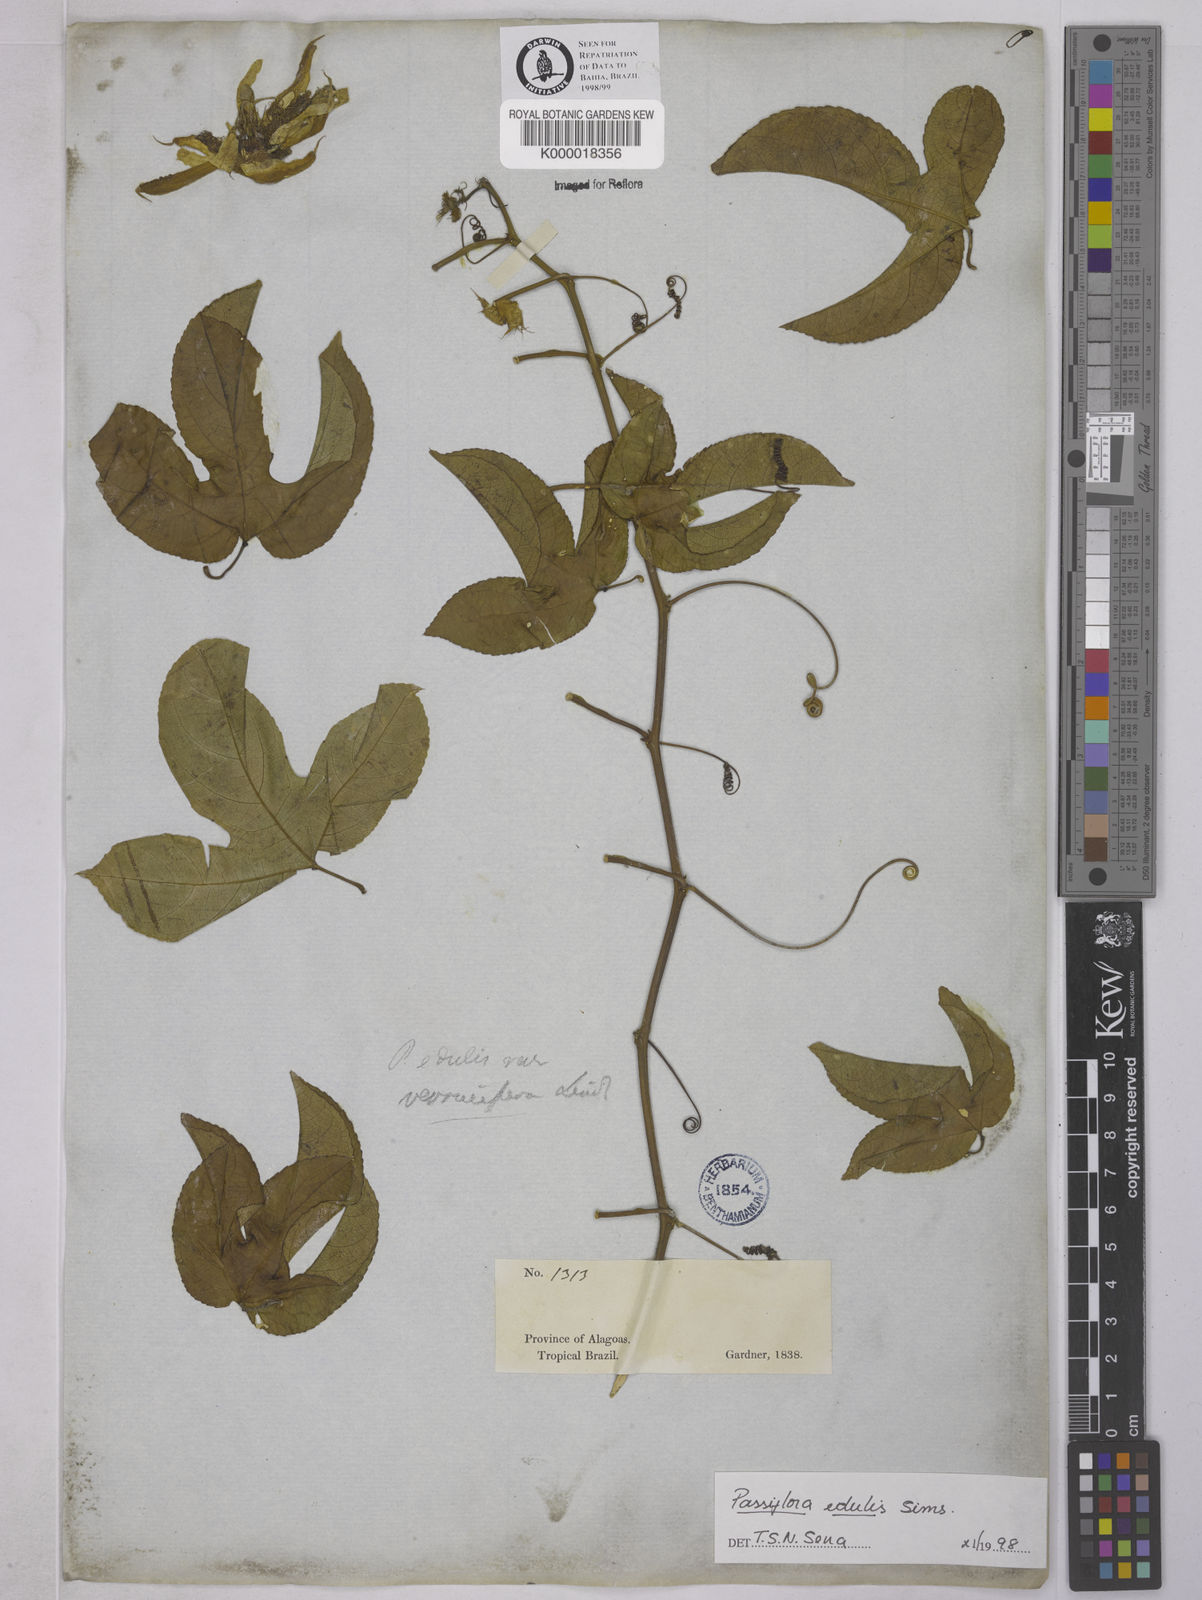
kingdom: Plantae
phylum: Tracheophyta
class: Magnoliopsida
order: Malpighiales
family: Passifloraceae
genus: Passiflora
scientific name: Passiflora edulis
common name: Purple granadilla
